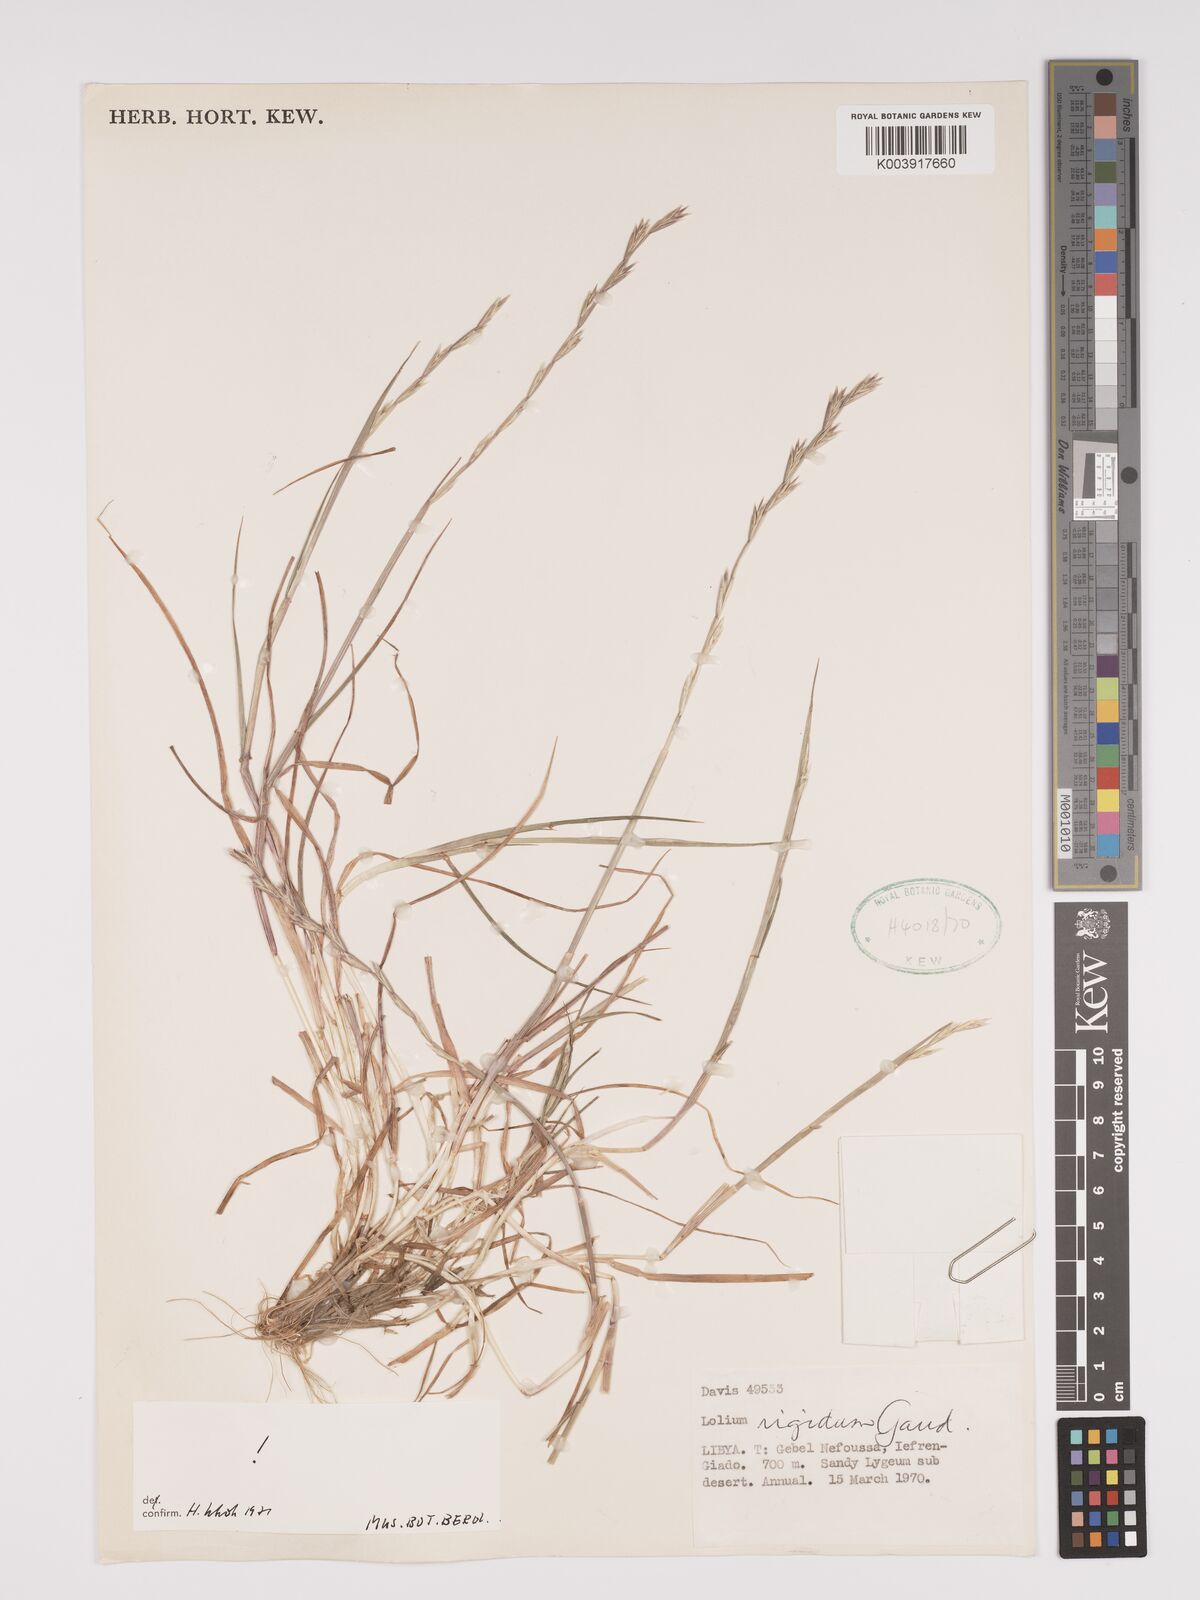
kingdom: Plantae
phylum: Tracheophyta
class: Liliopsida
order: Poales
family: Poaceae
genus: Lolium
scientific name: Lolium rigidum
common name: Wimmera ryegrass
